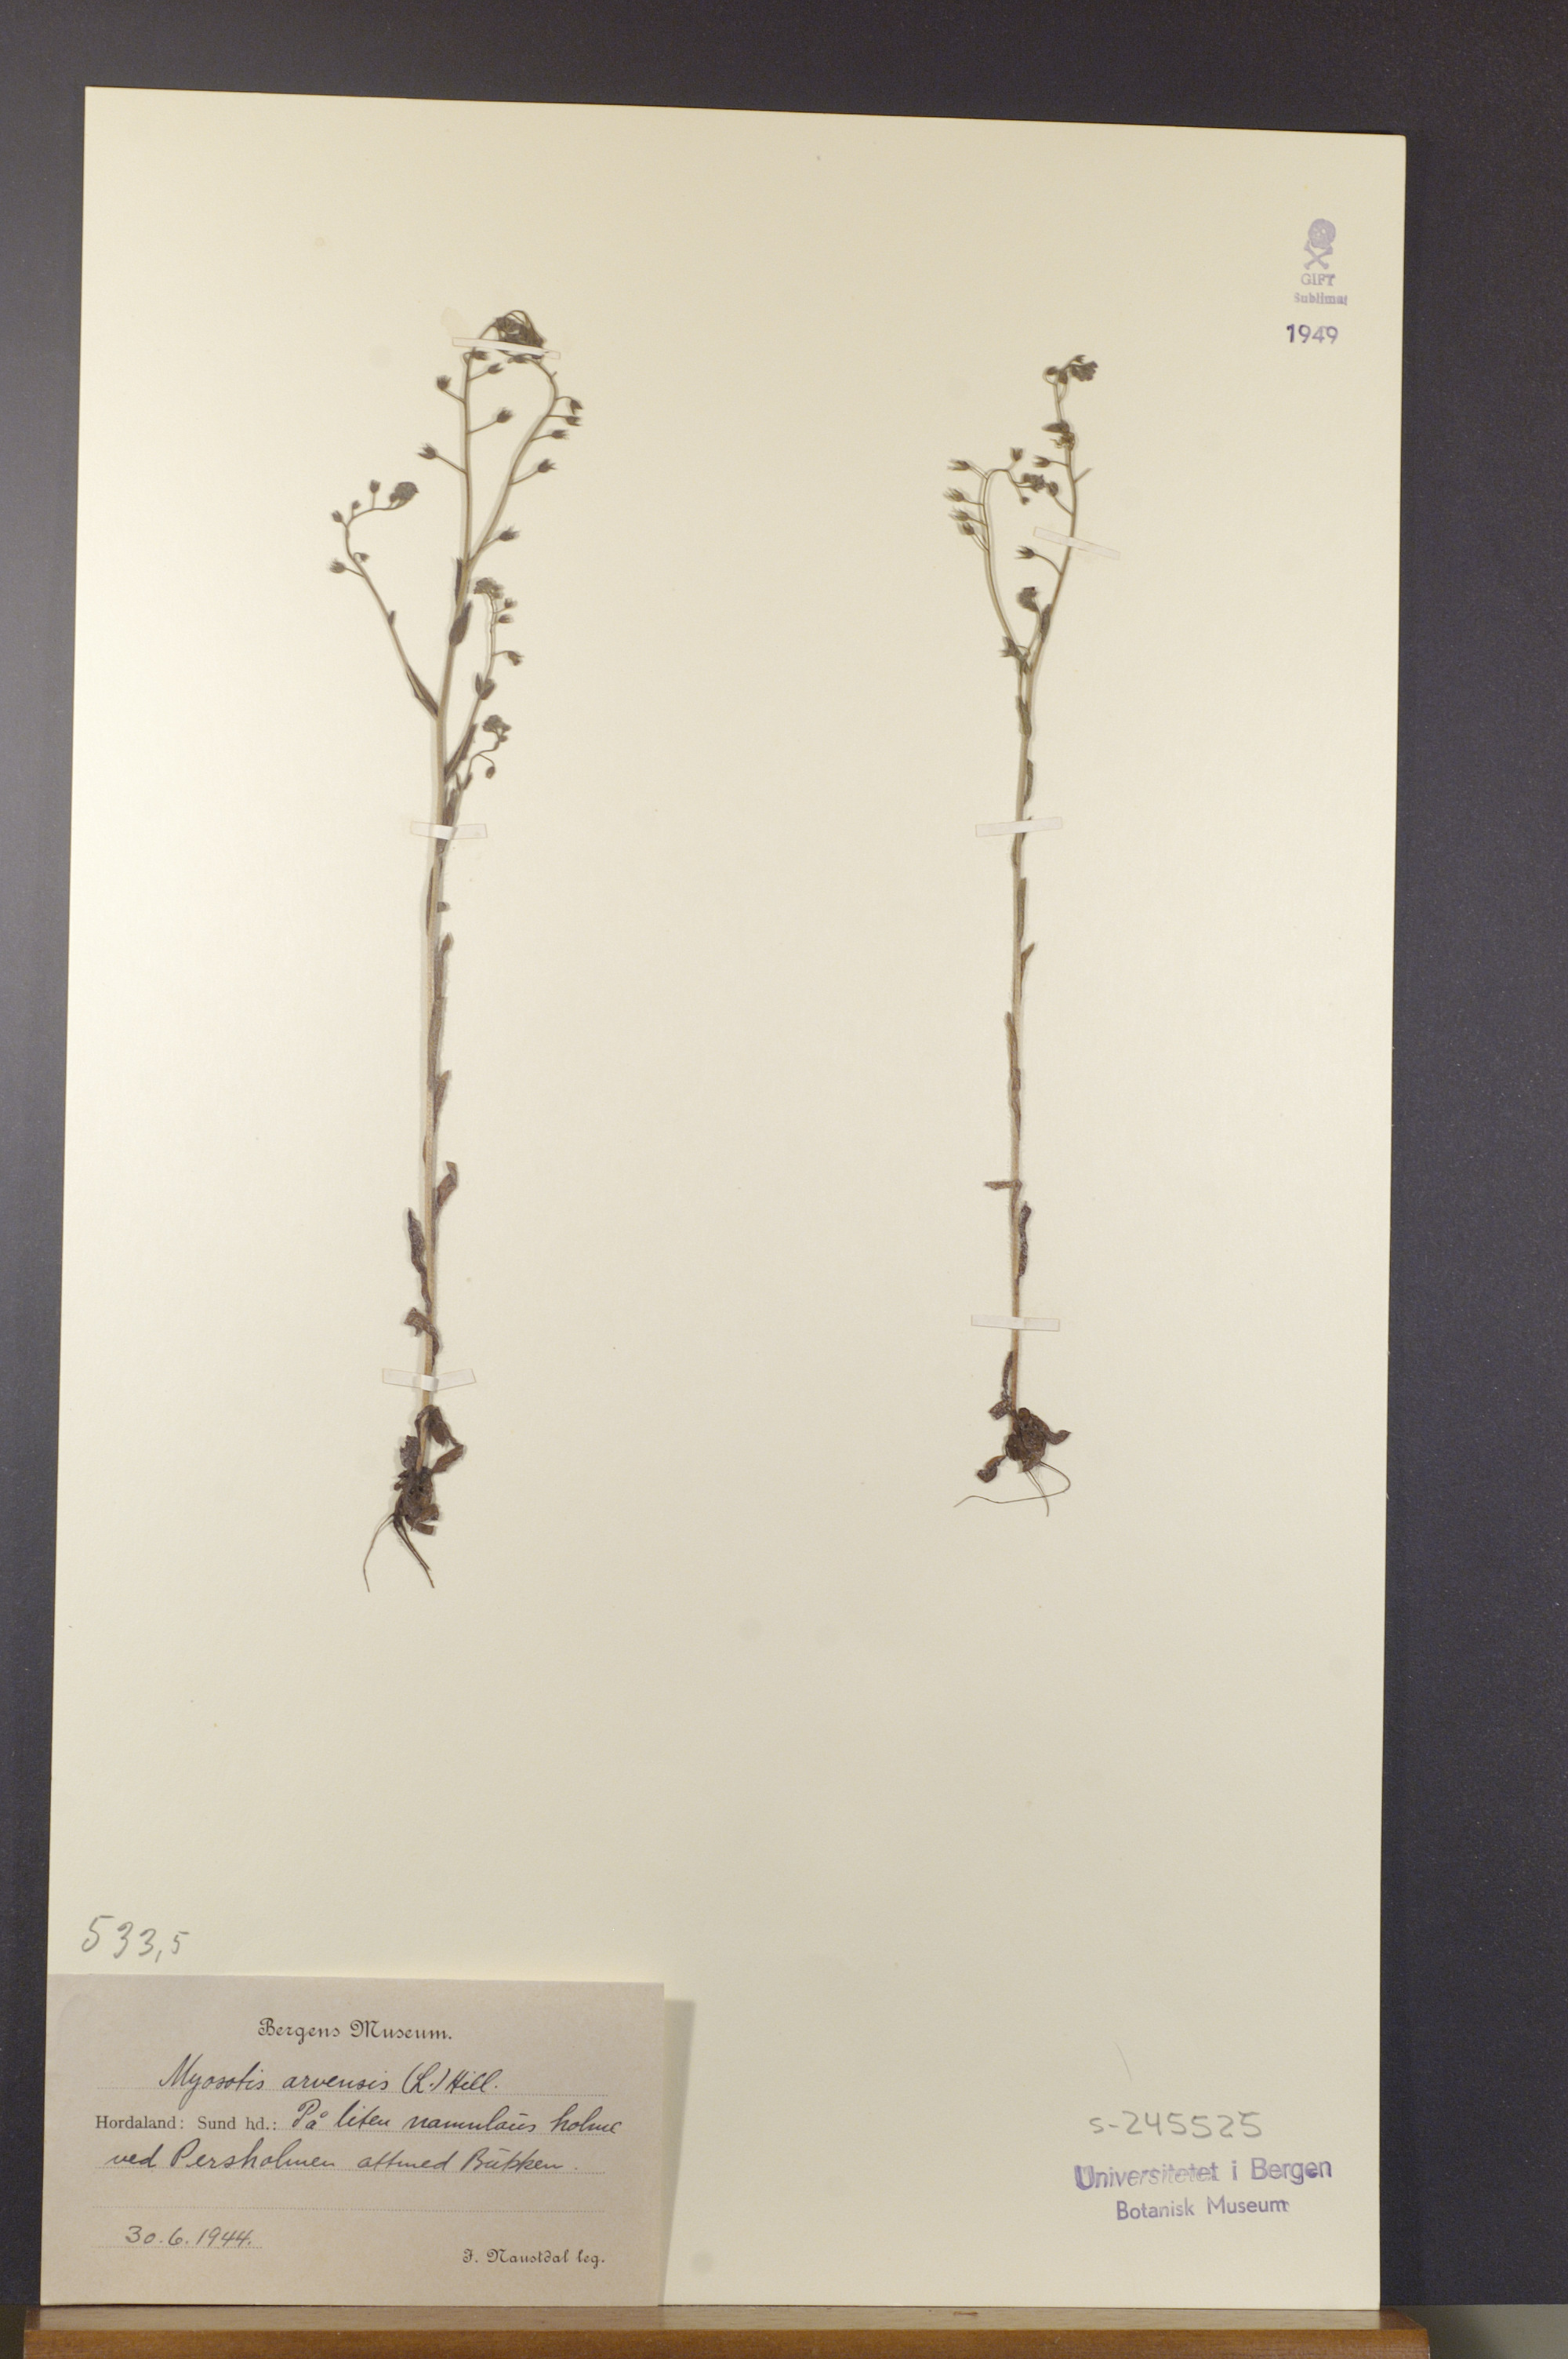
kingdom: Plantae
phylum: Tracheophyta
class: Magnoliopsida
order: Boraginales
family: Boraginaceae
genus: Myosotis
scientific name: Myosotis arvensis
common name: Field forget-me-not
